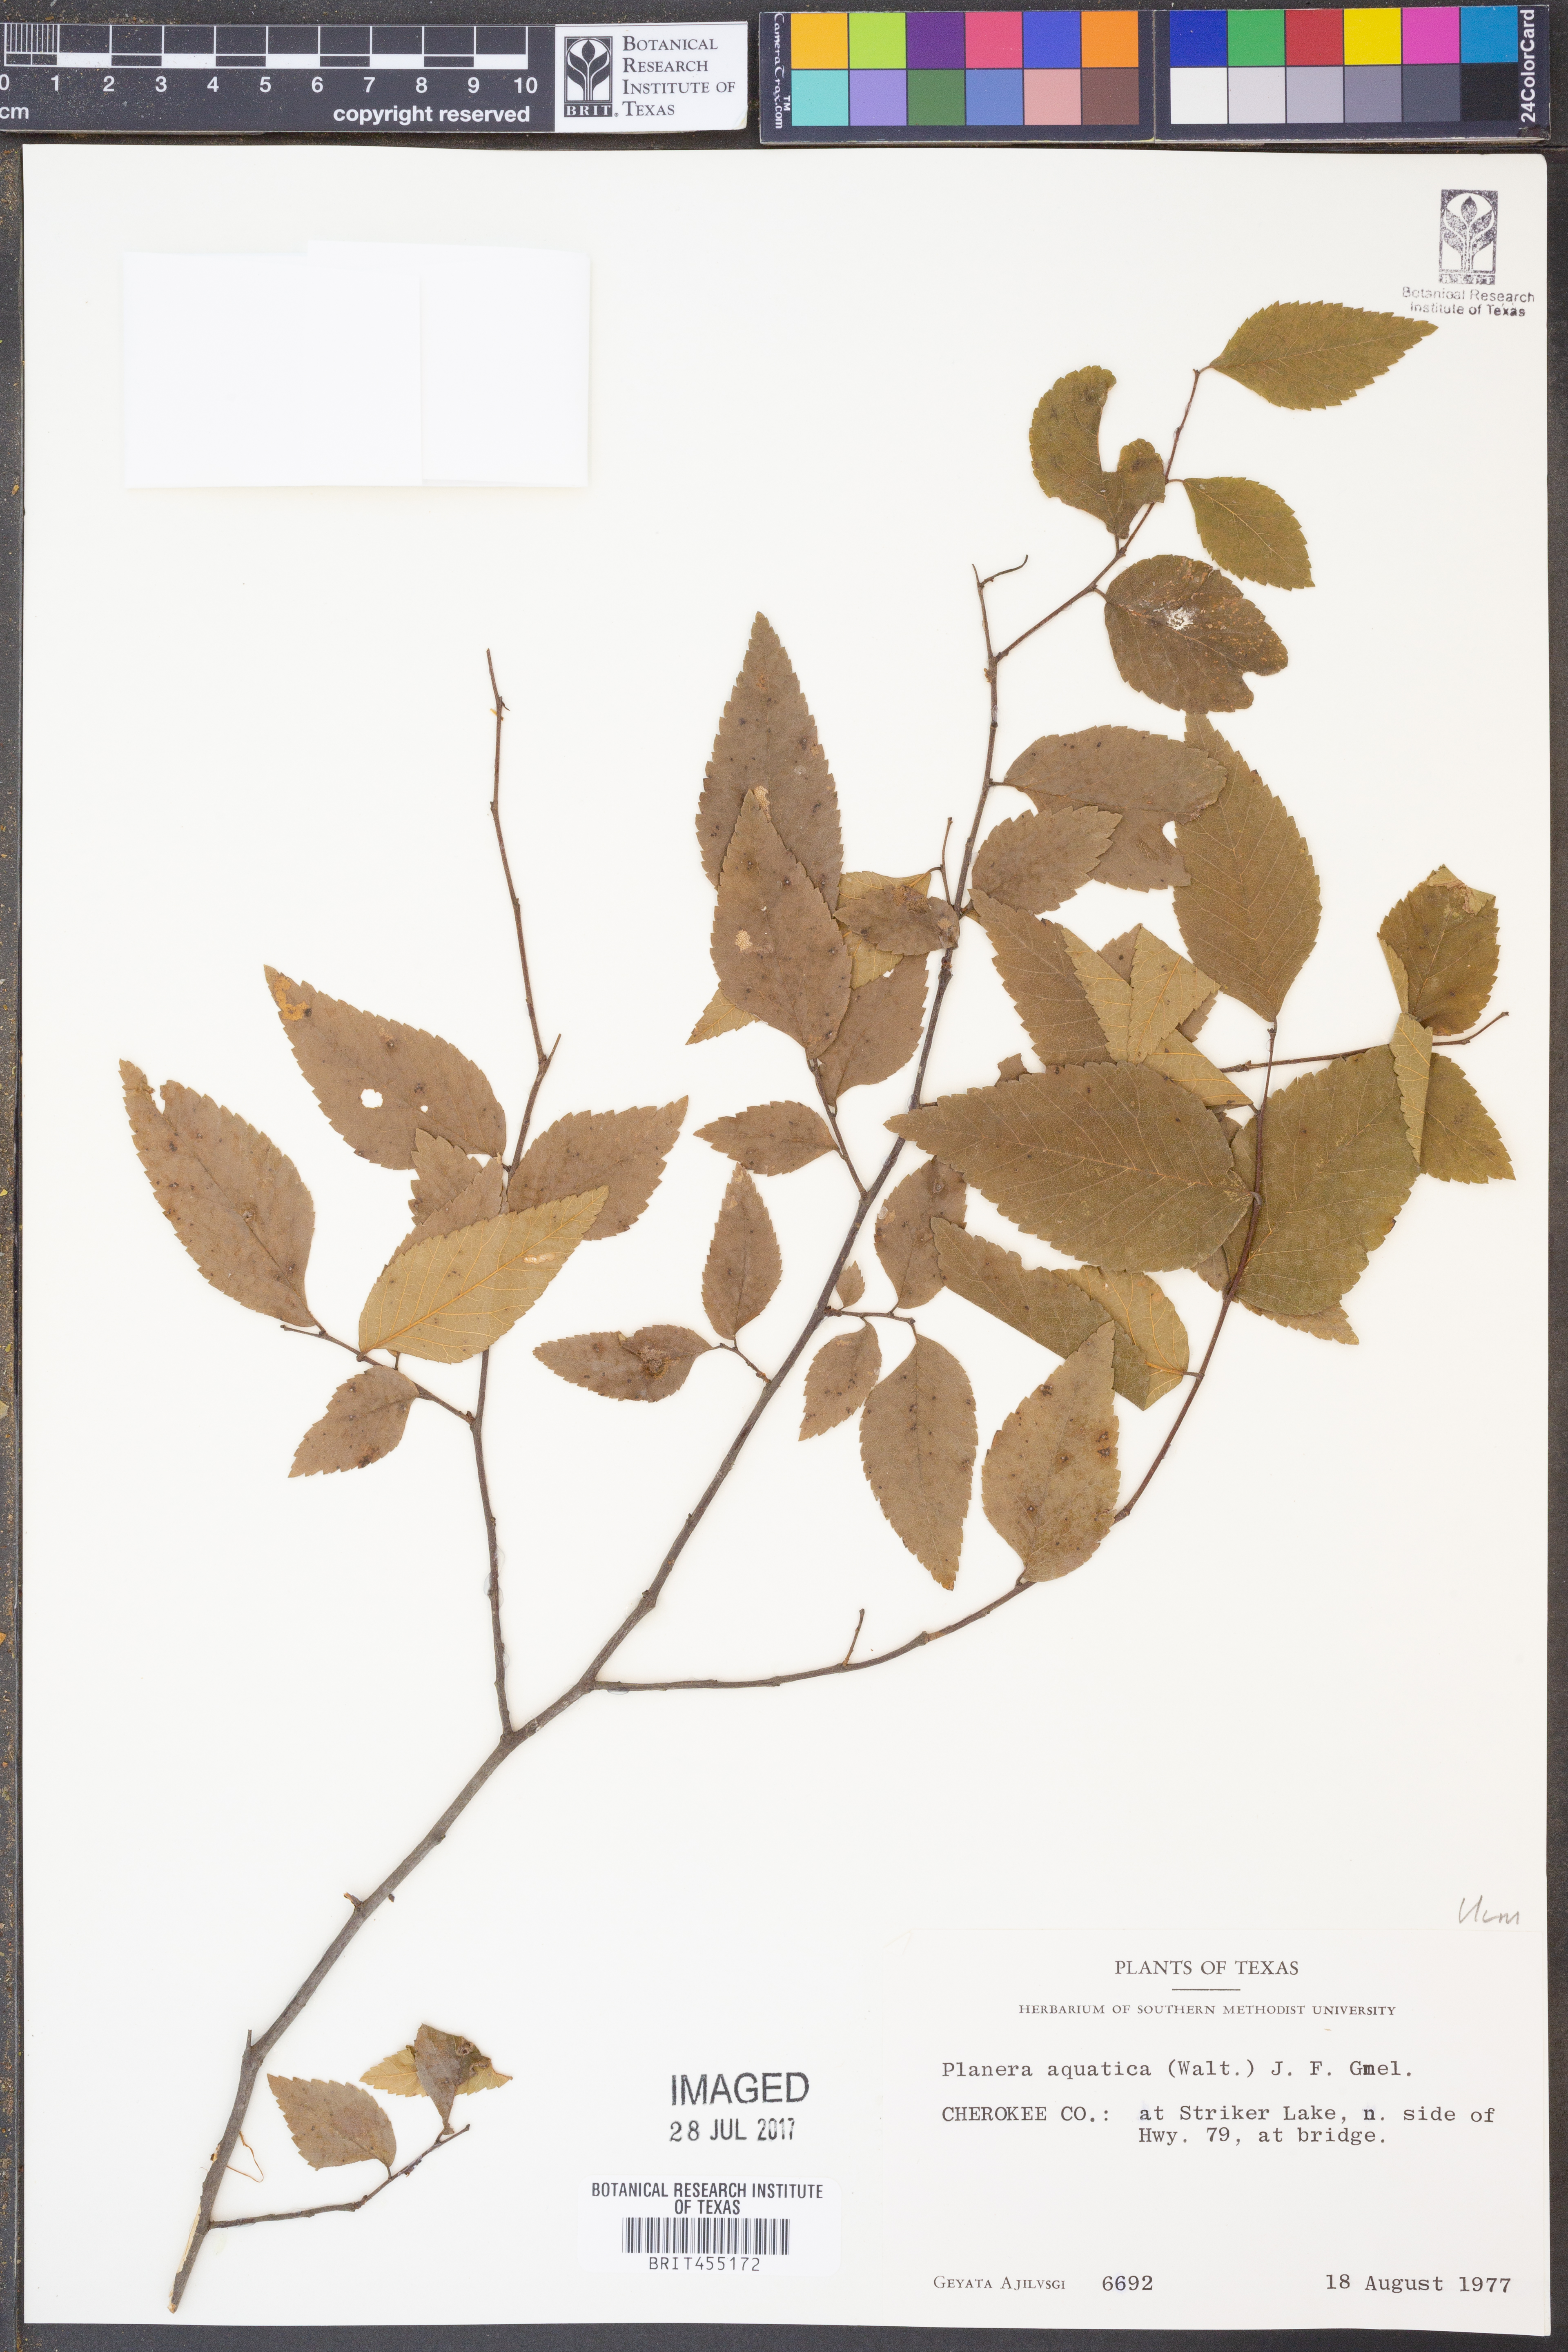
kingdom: Plantae
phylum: Tracheophyta
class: Magnoliopsida
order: Rosales
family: Ulmaceae
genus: Planera
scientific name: Planera aquatica
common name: Water-elm
